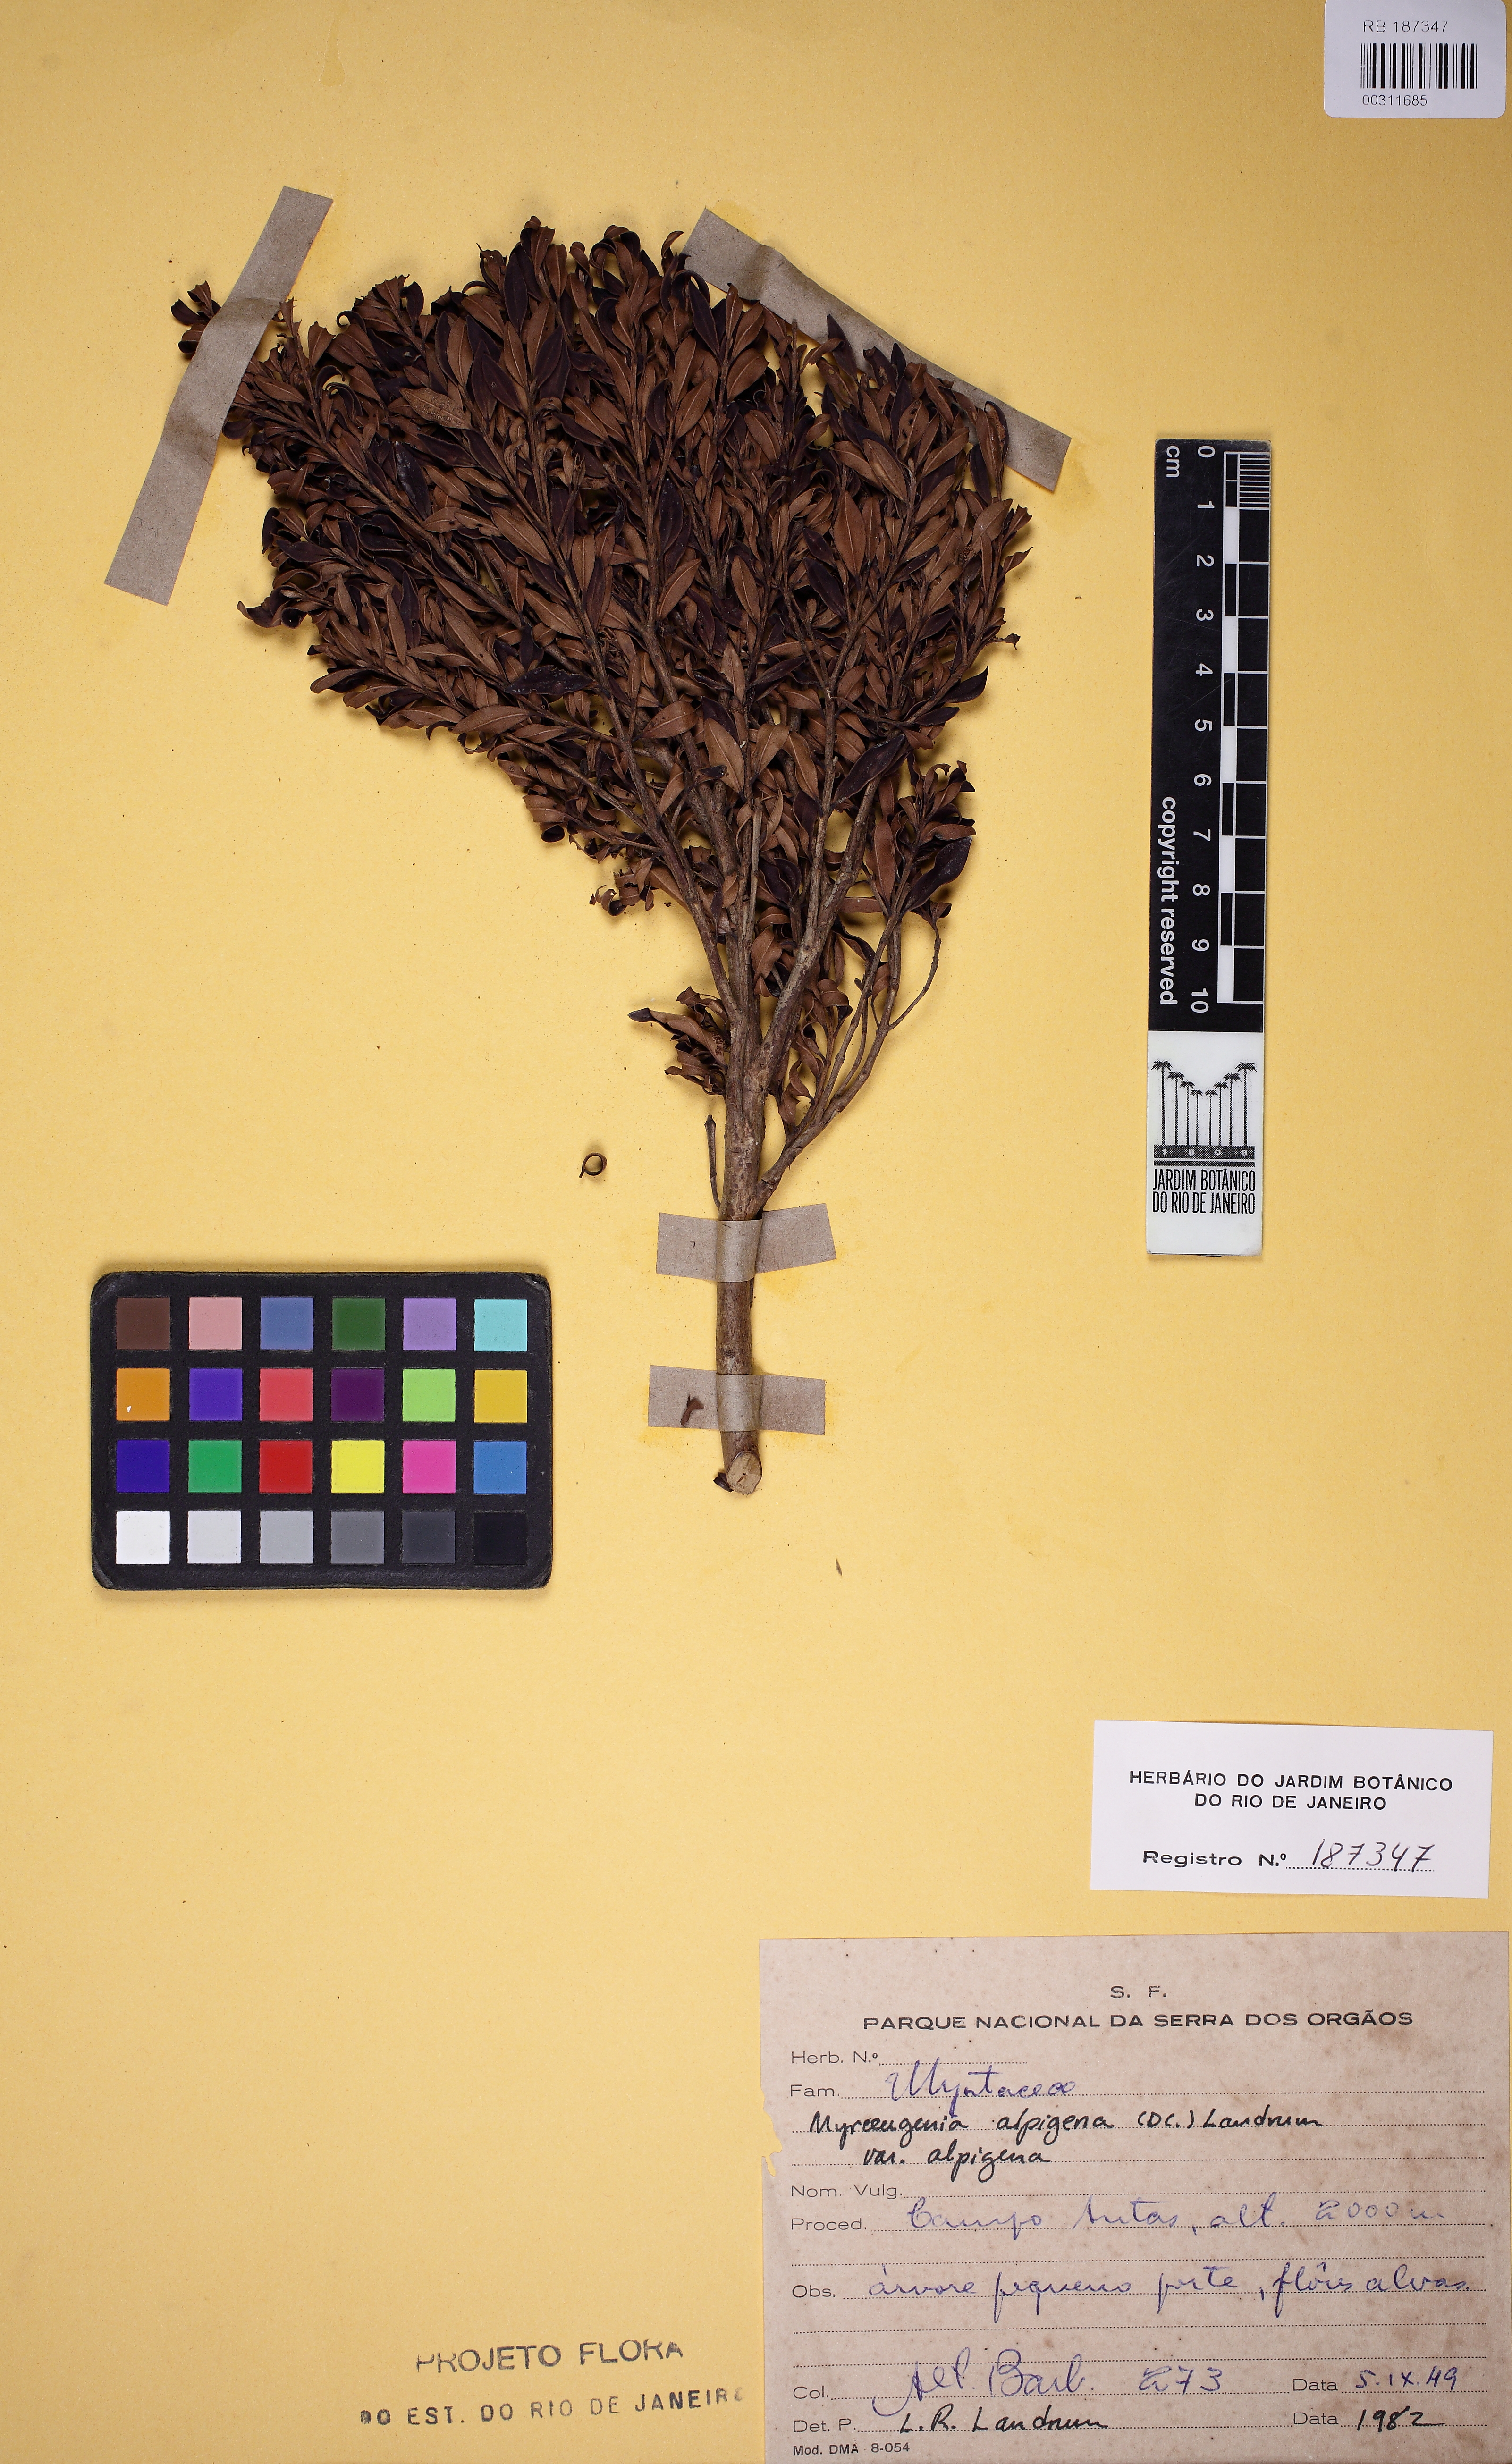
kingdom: Plantae
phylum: Tracheophyta
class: Magnoliopsida
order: Myrtales
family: Myrtaceae
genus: Myrceugenia
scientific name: Myrceugenia alpigena
